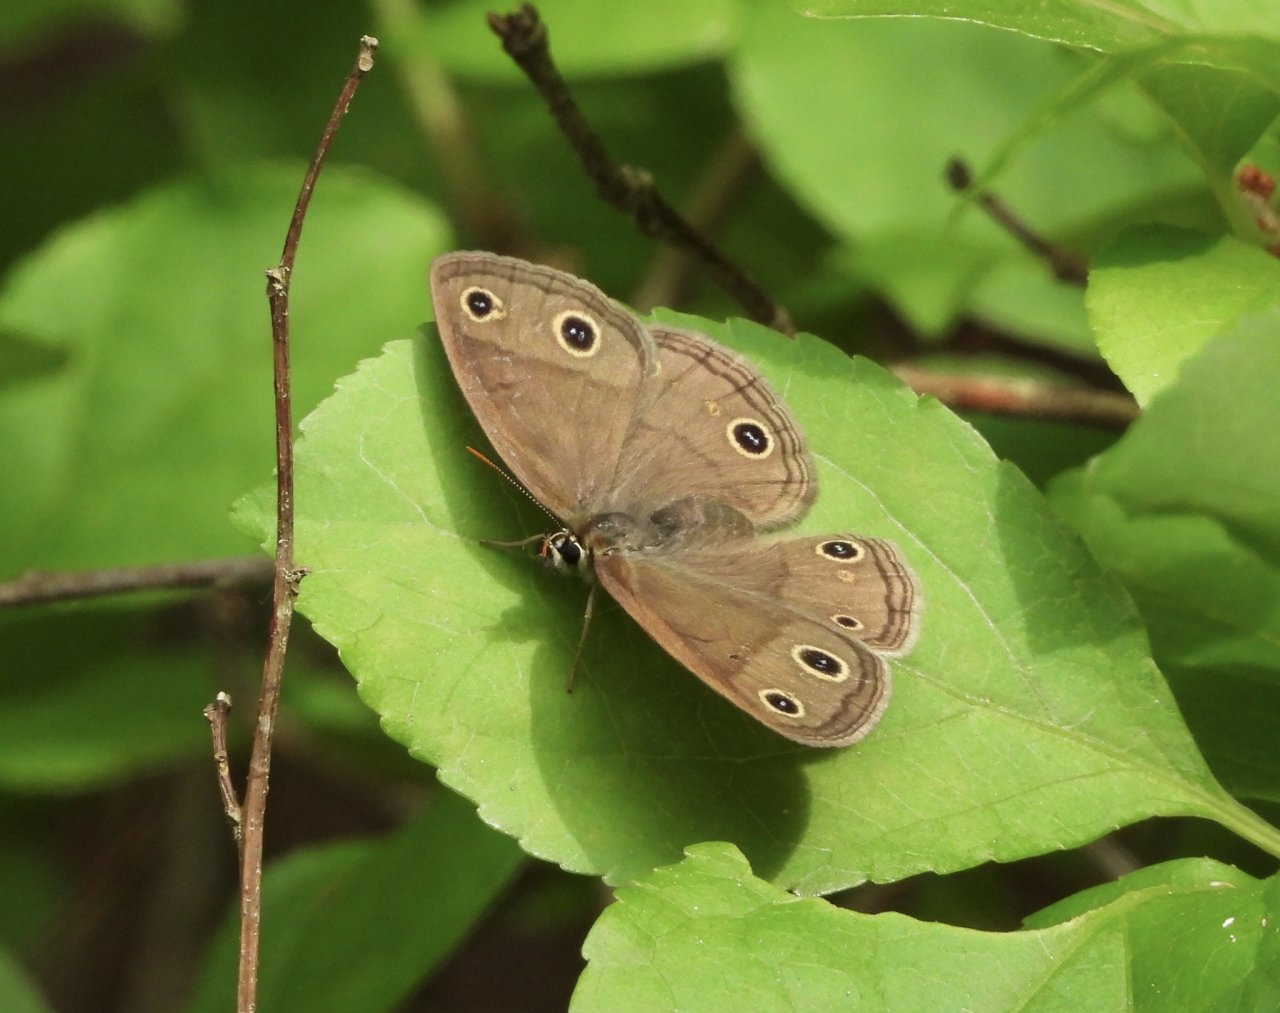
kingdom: Animalia
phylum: Arthropoda
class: Insecta
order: Lepidoptera
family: Nymphalidae
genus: Euptychia
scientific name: Euptychia cymela
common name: Little Wood Satyr
